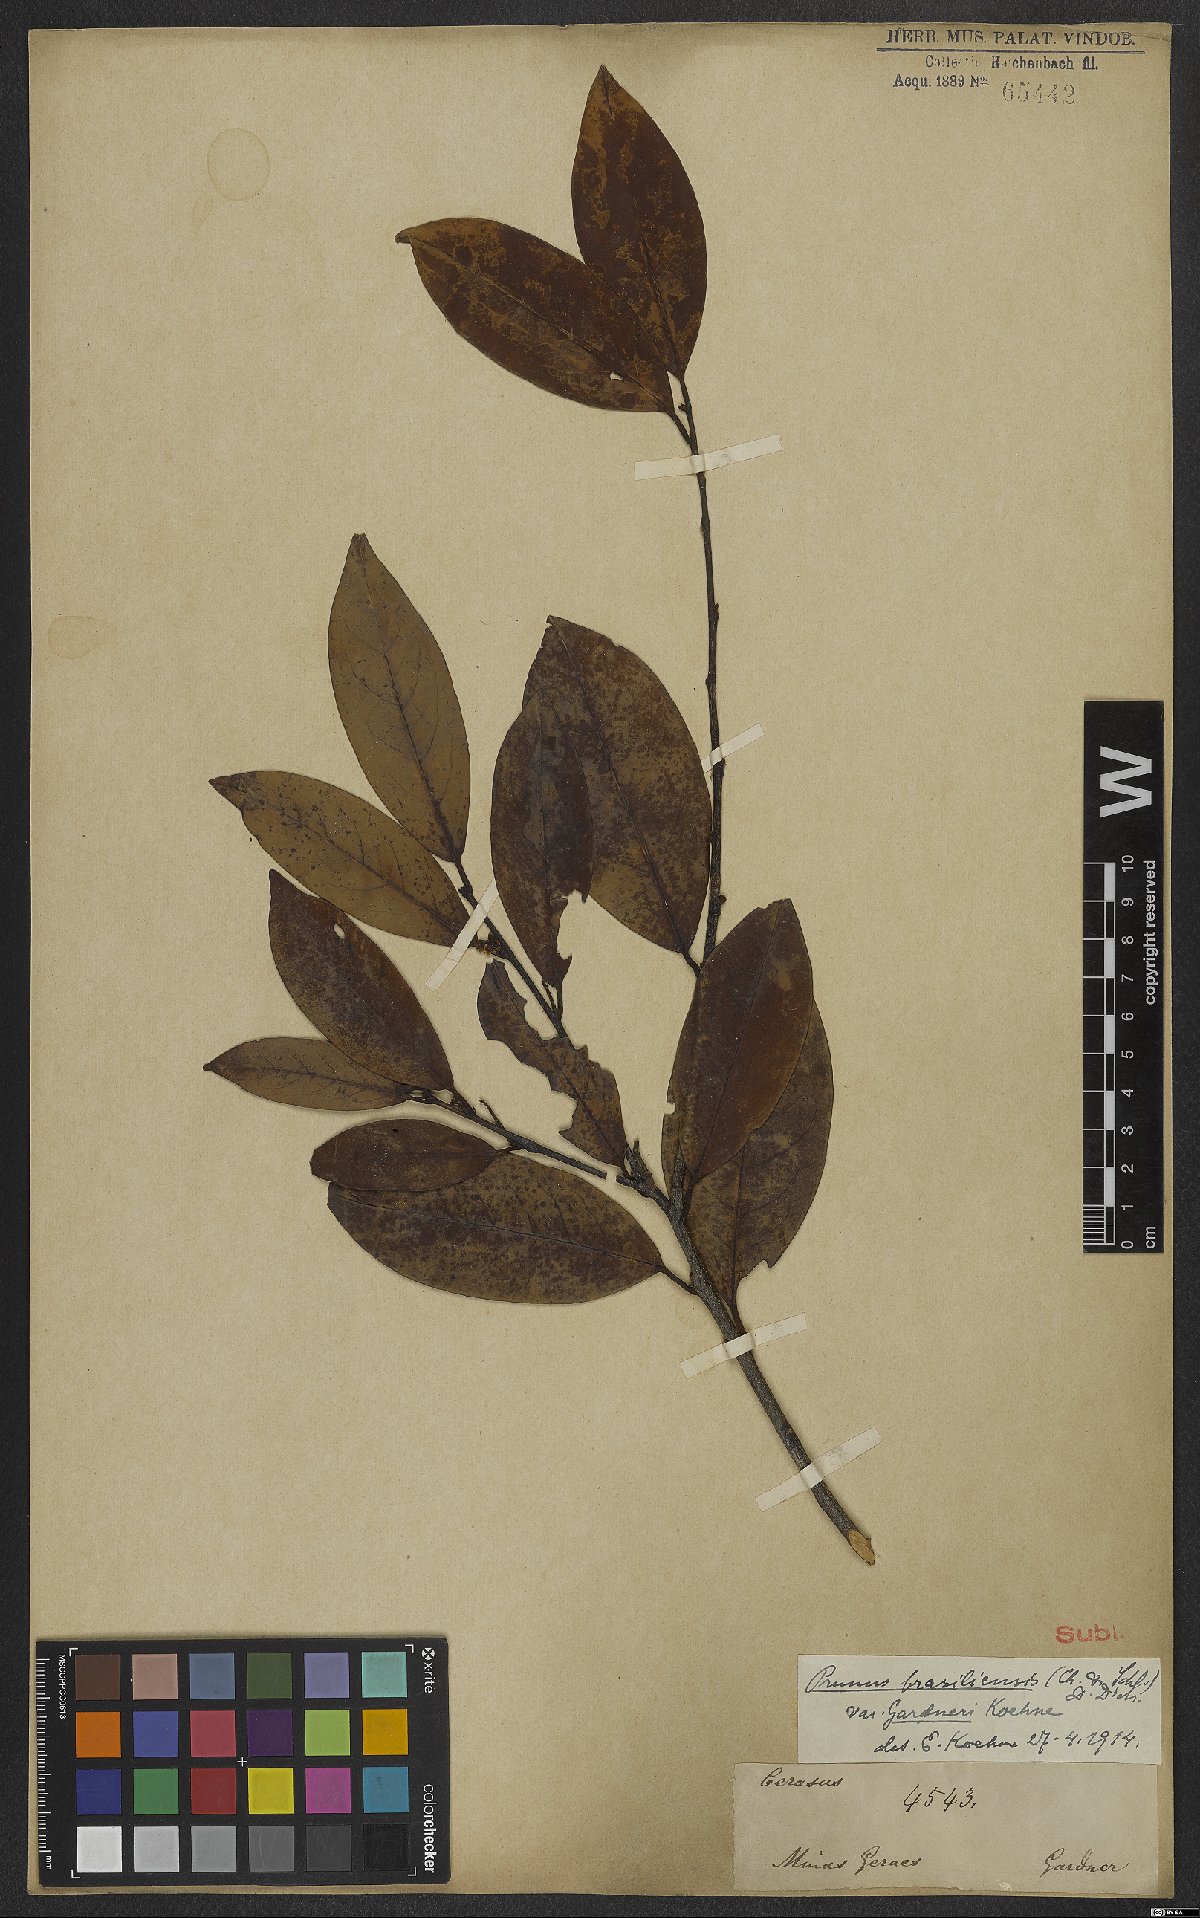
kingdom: Plantae
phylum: Tracheophyta
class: Magnoliopsida
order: Rosales
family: Rosaceae
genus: Prunus
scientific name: Prunus brasiliensis
